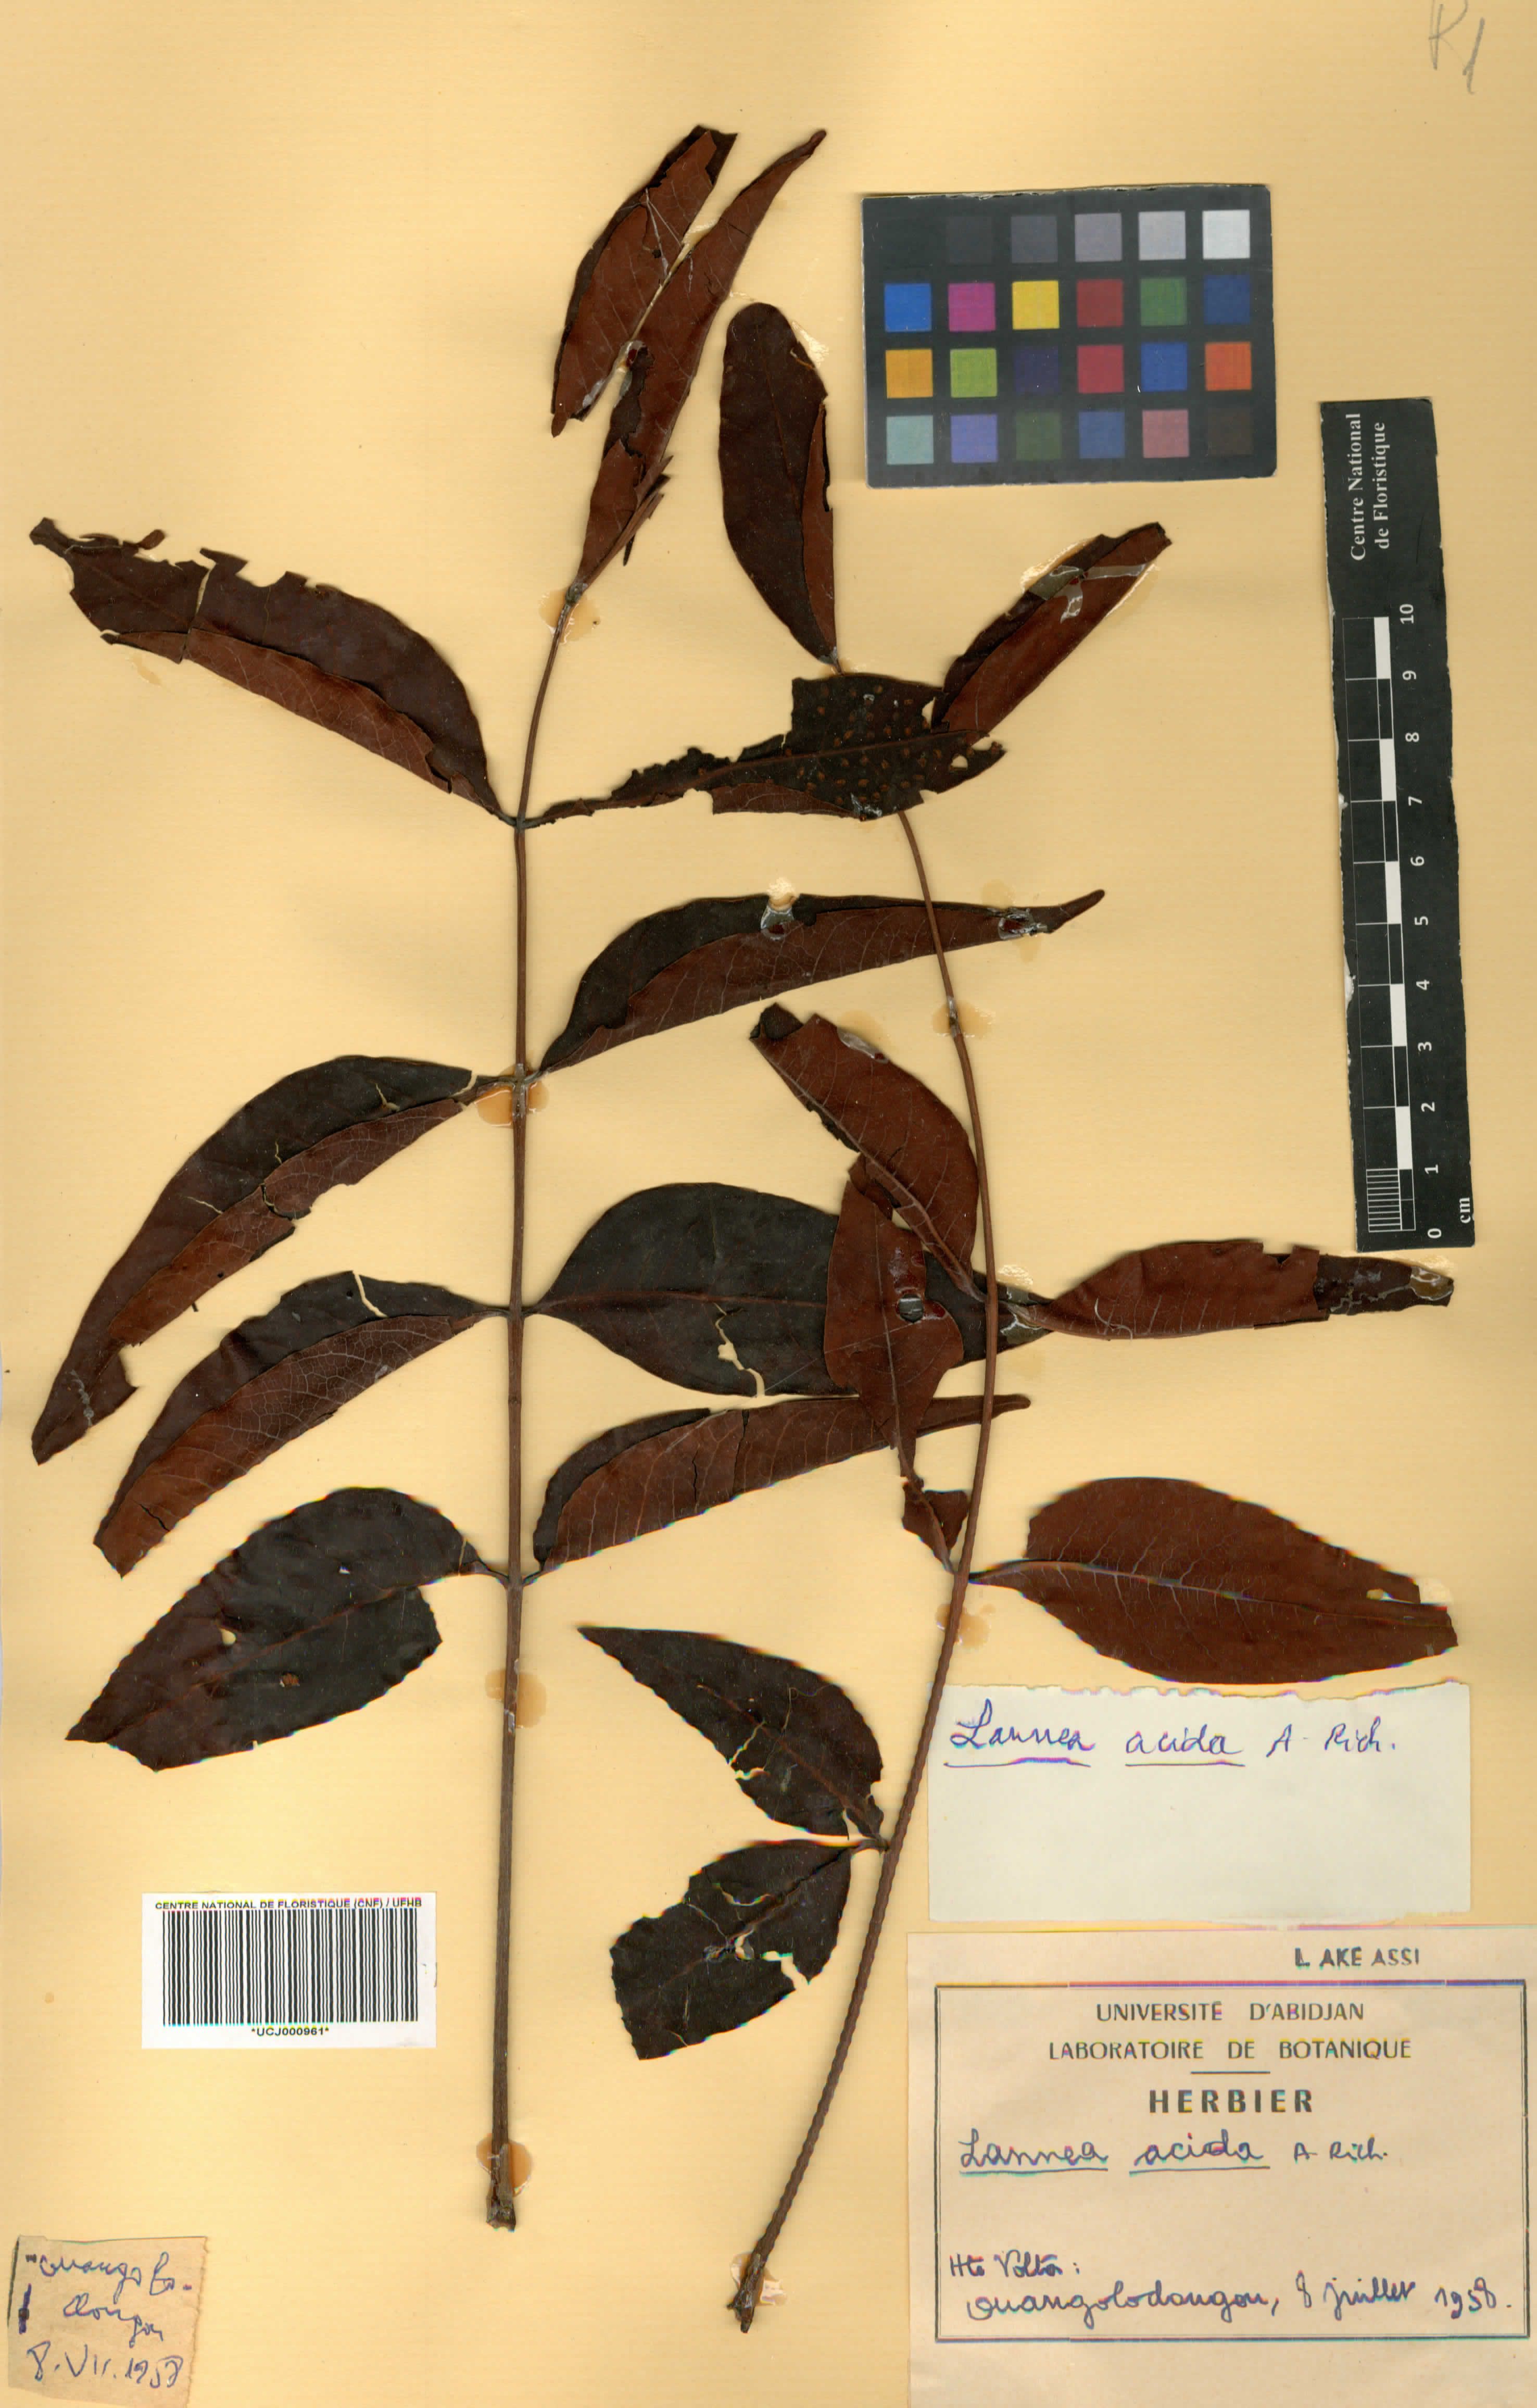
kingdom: Plantae
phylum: Tracheophyta
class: Magnoliopsida
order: Sapindales
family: Anacardiaceae
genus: Lannea
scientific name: Lannea acida
